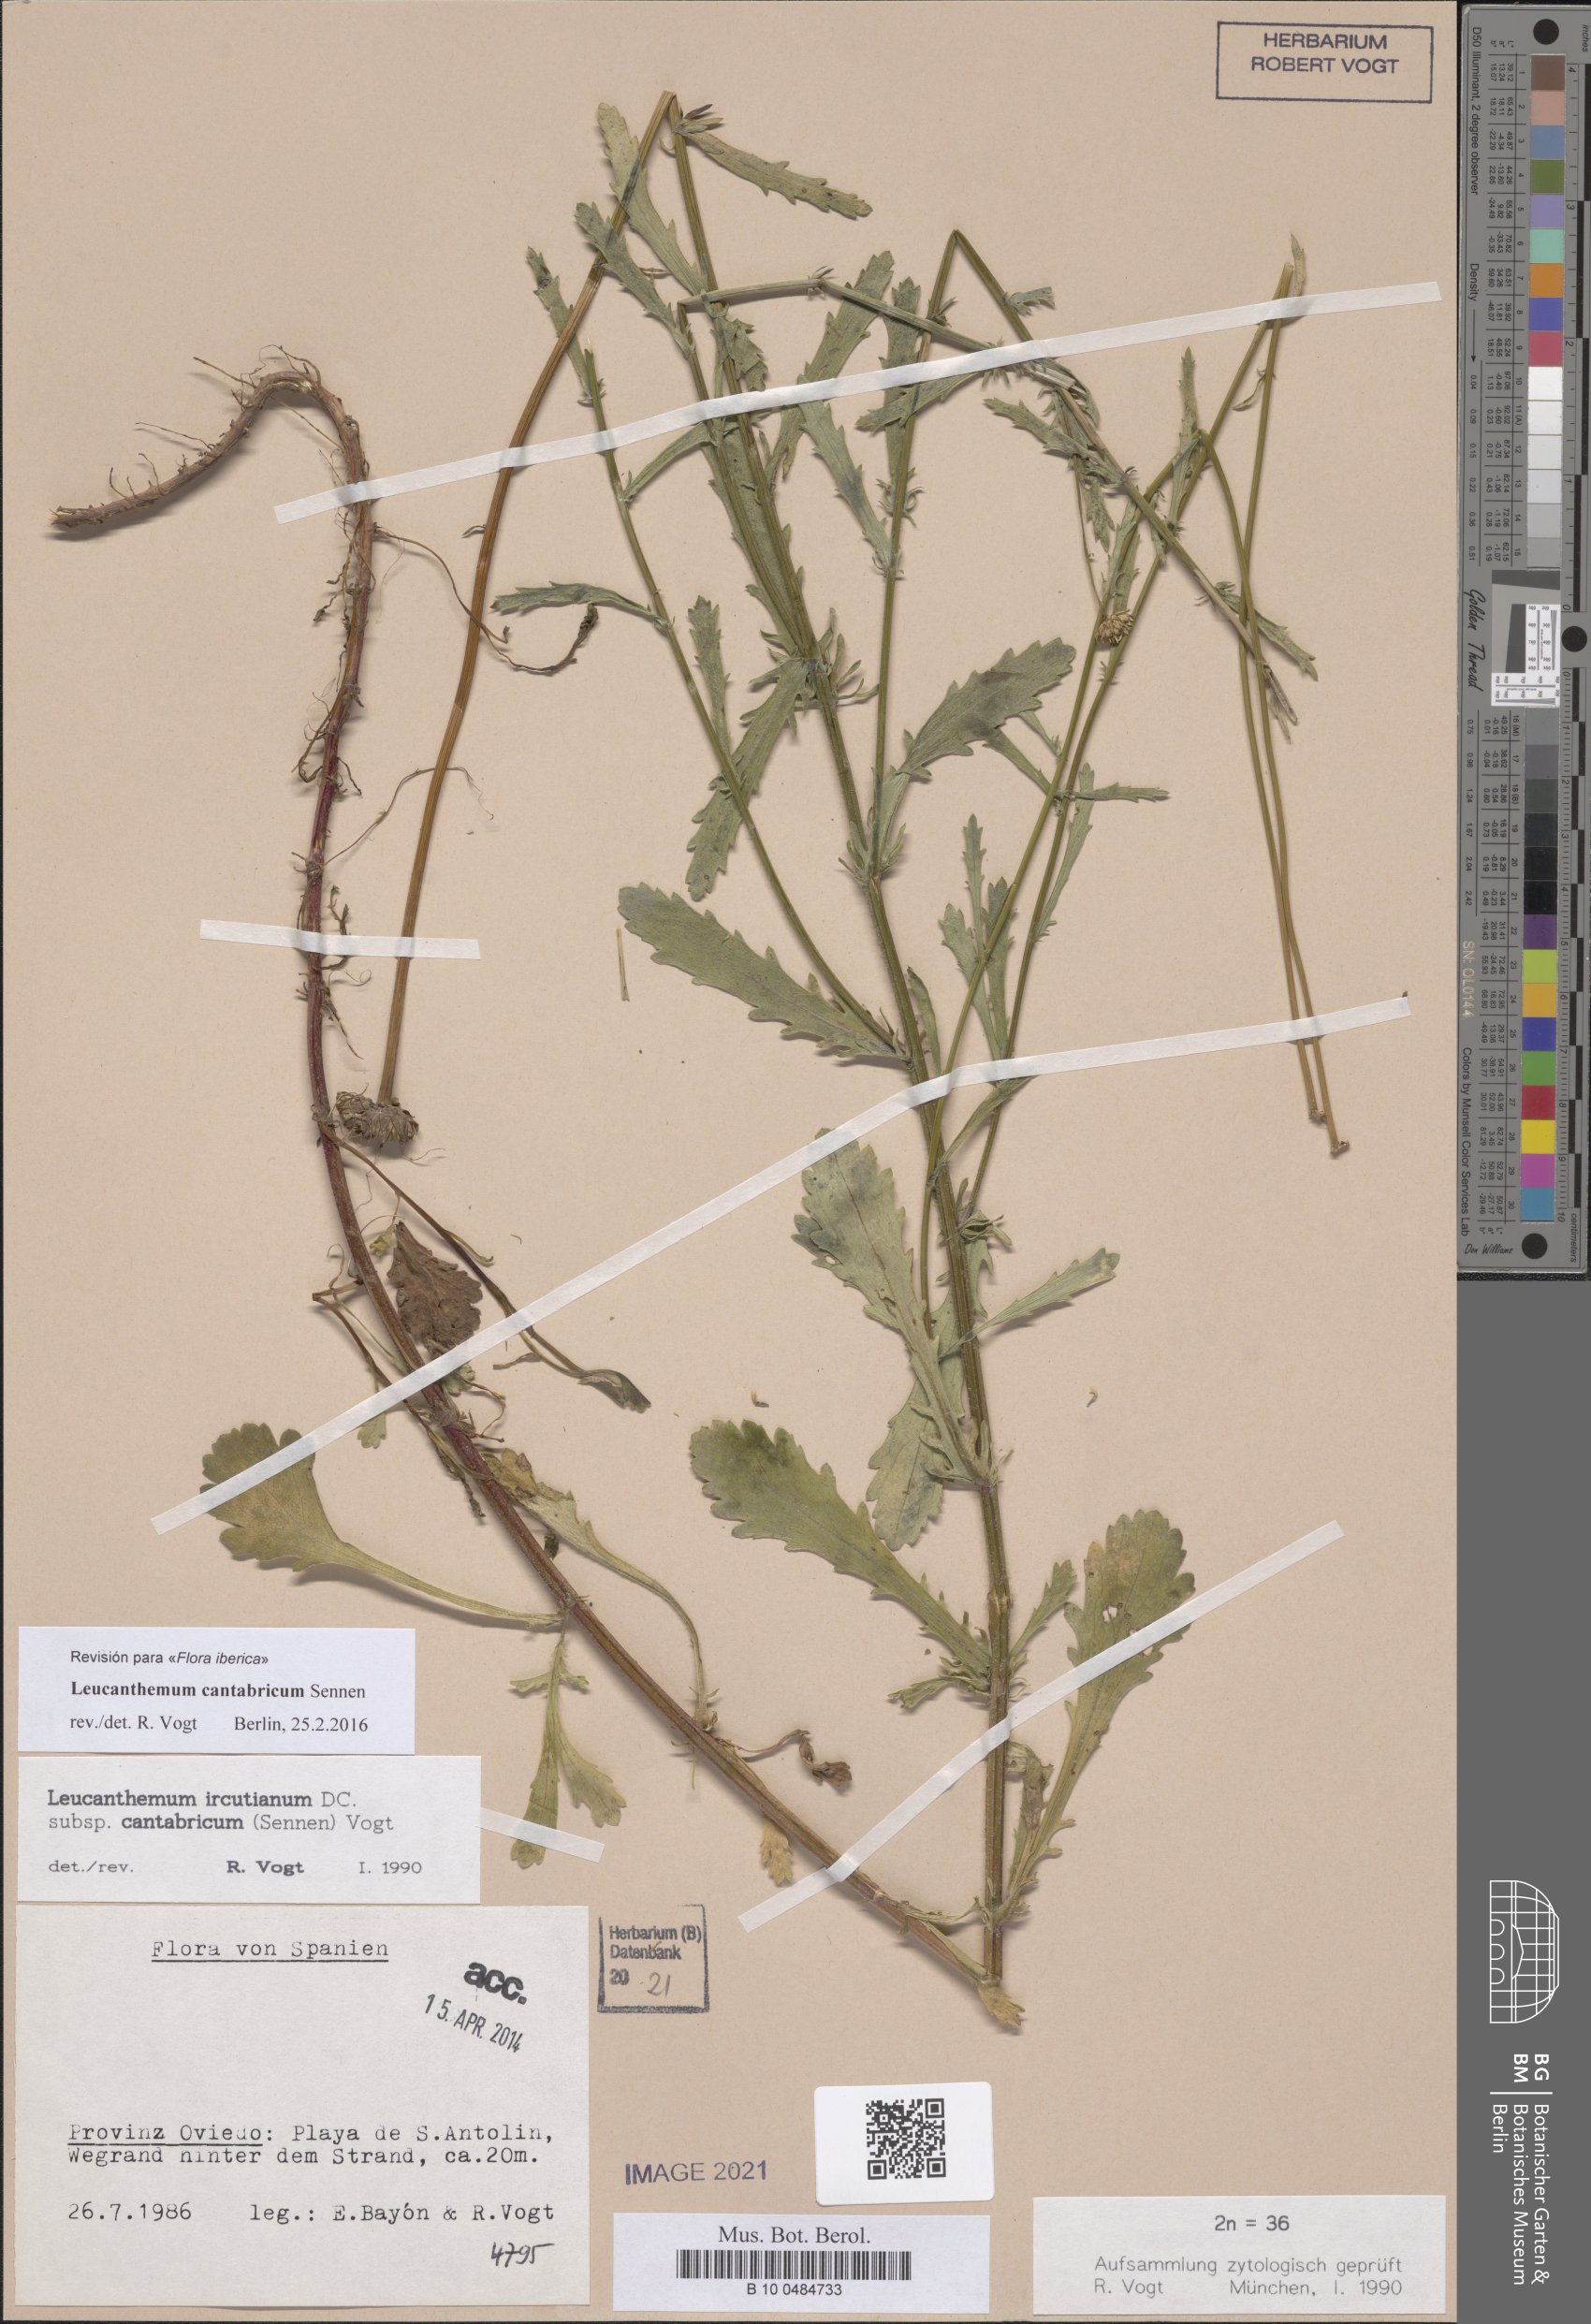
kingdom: Plantae
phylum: Tracheophyta
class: Magnoliopsida
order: Asterales
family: Asteraceae
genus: Leucanthemum
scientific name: Leucanthemum cantabricum
